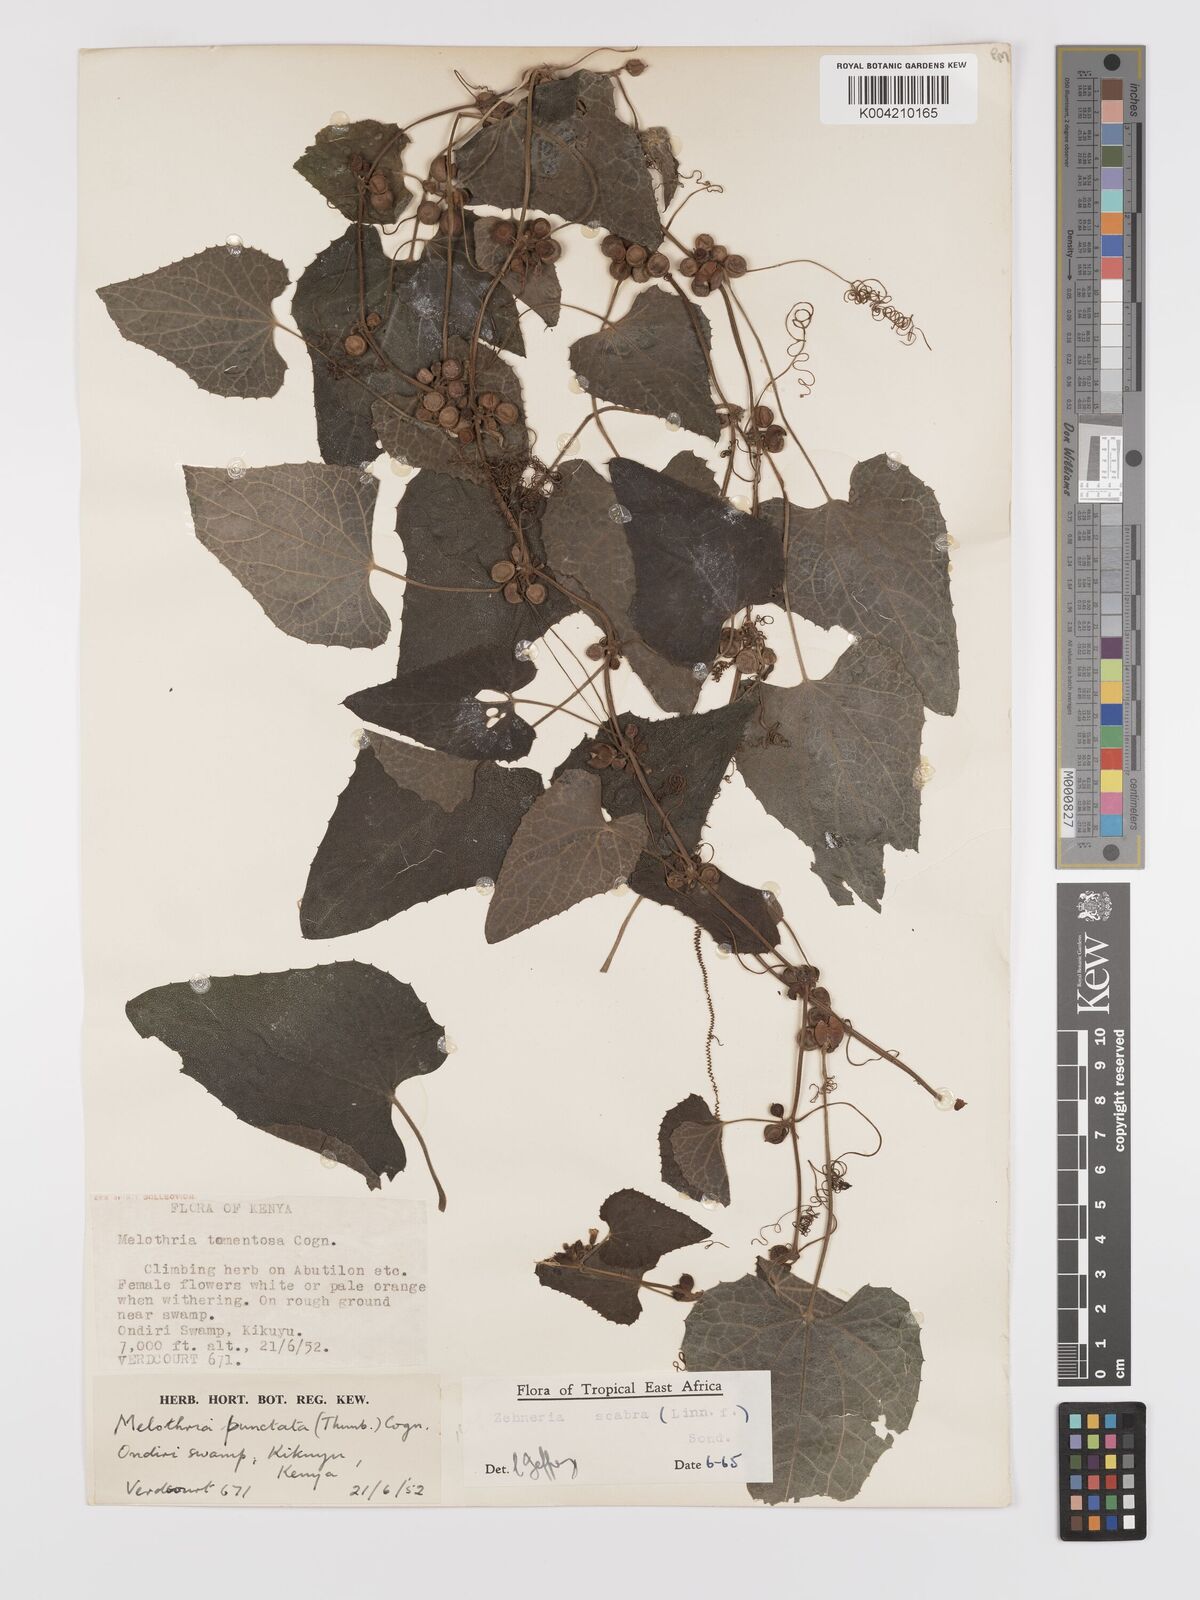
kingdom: Plantae
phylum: Tracheophyta
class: Magnoliopsida
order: Cucurbitales
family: Cucurbitaceae
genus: Zehneria
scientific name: Zehneria scabra
